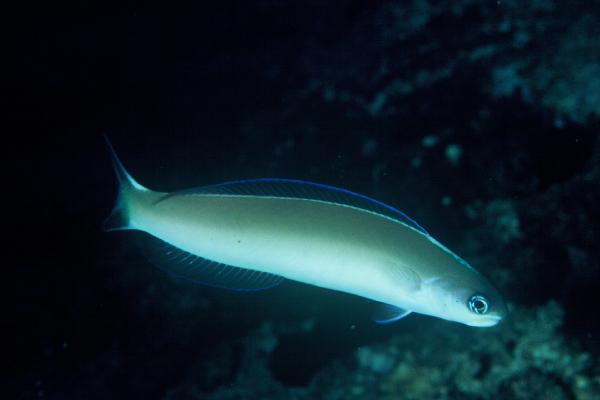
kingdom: Animalia
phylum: Chordata
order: Perciformes
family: Malacanthidae
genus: Hoplolatilus
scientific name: Hoplolatilus cuniculus
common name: Green tilefish
